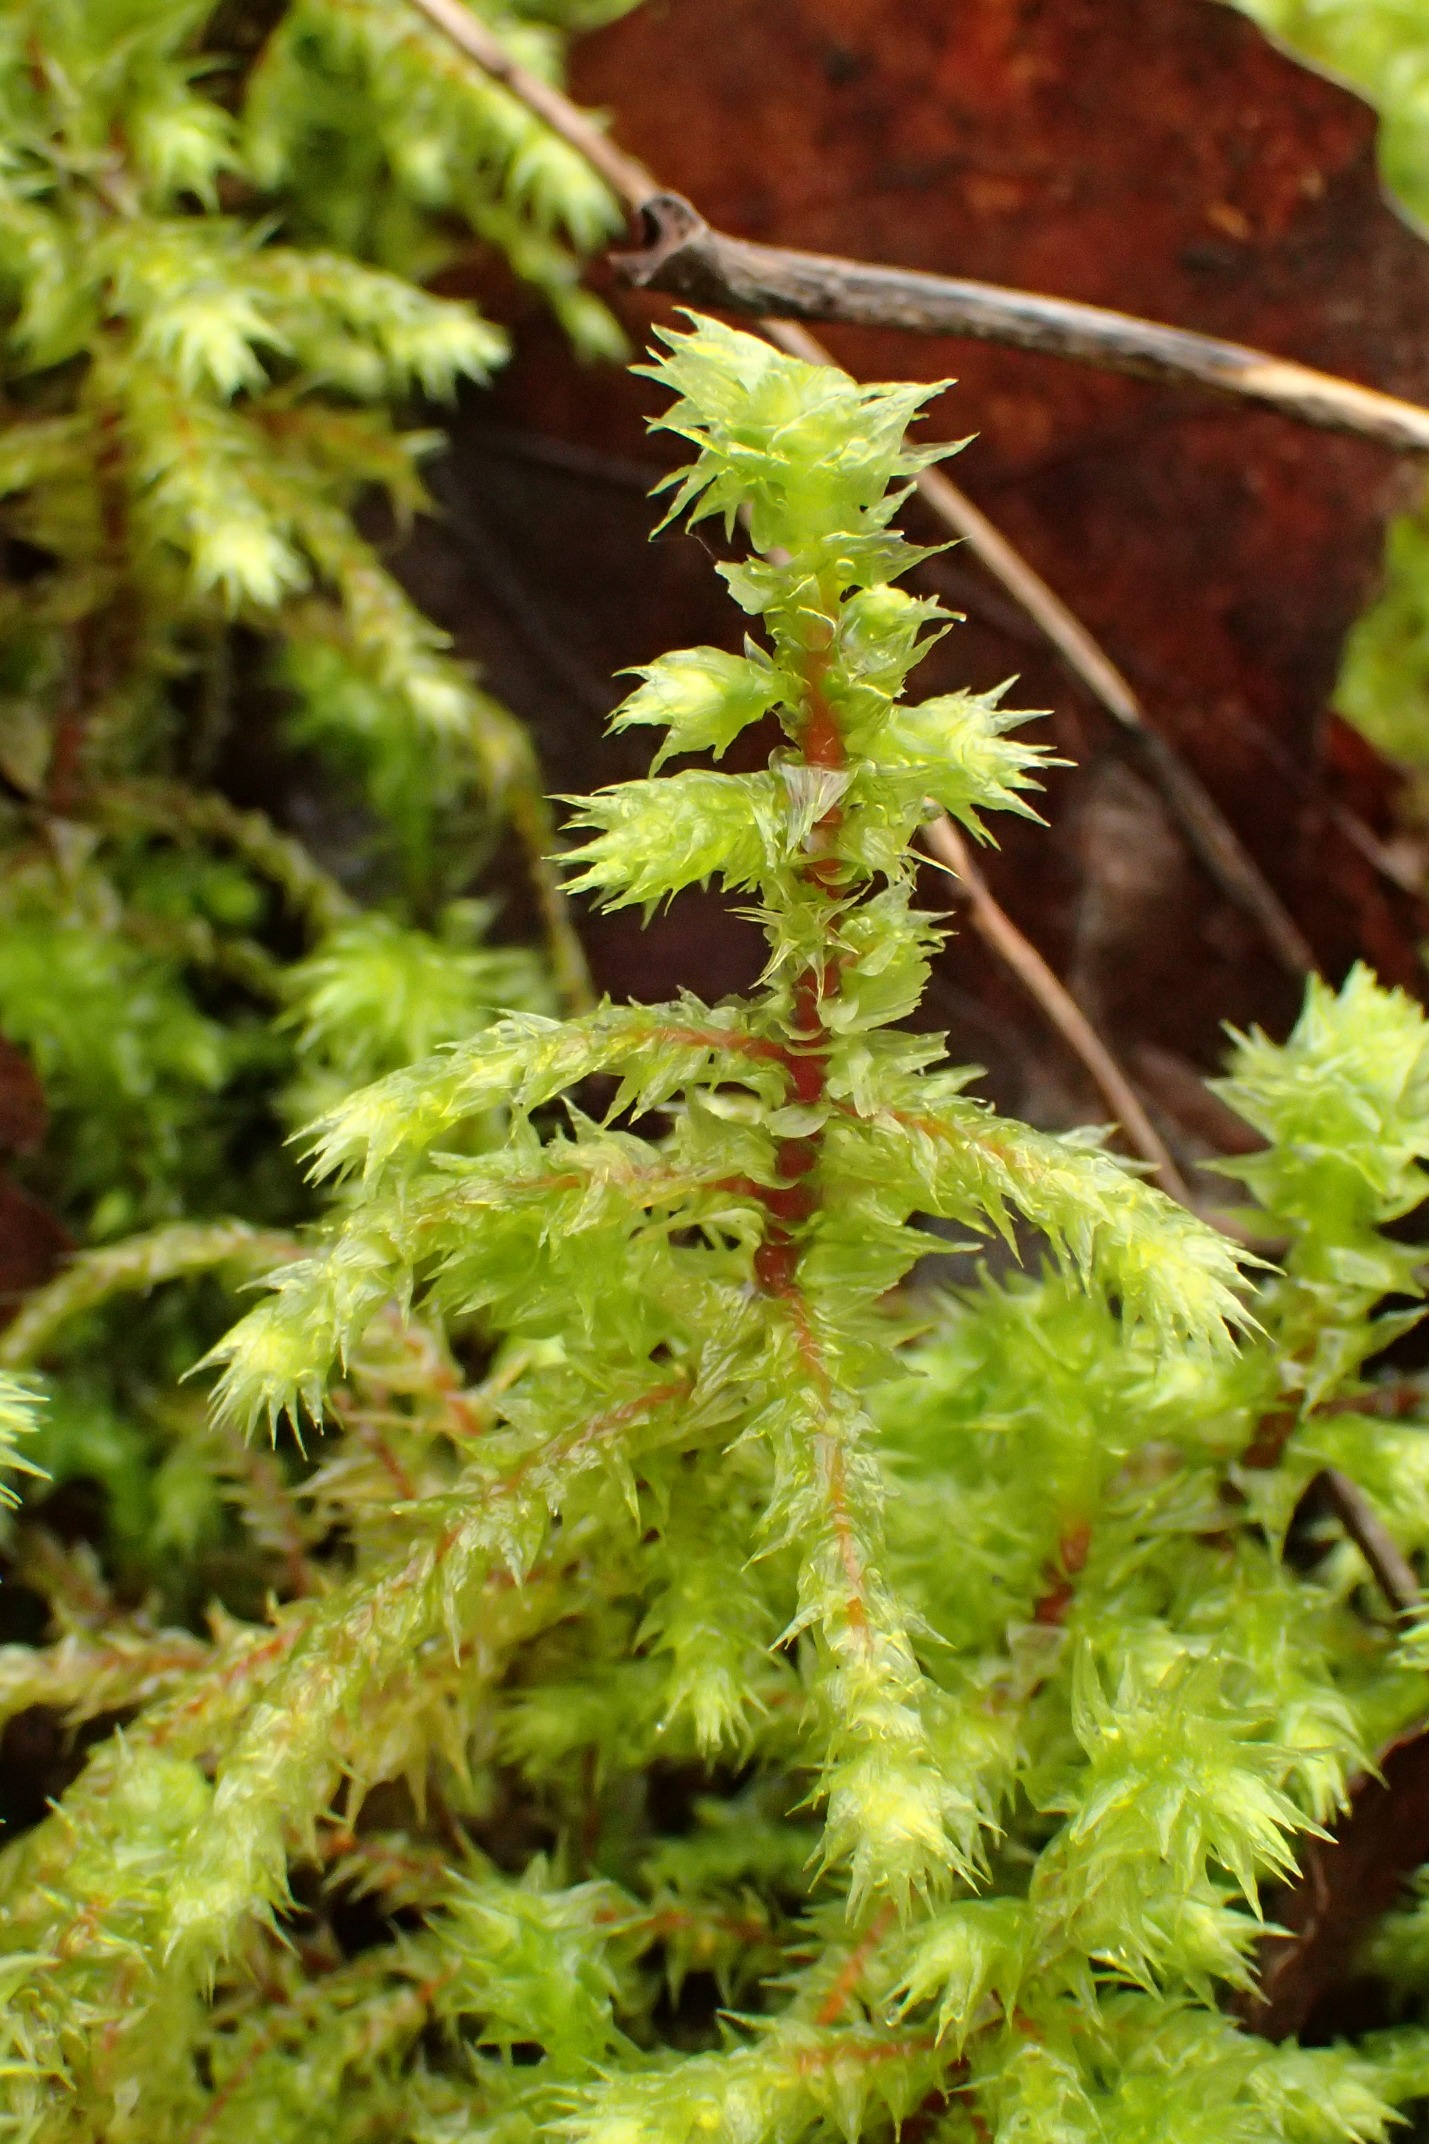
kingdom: Plantae
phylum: Bryophyta
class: Bryopsida
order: Hypnales
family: Hylocomiaceae
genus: Hylocomiadelphus
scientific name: Hylocomiadelphus triquetrus
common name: Stor kransemos
